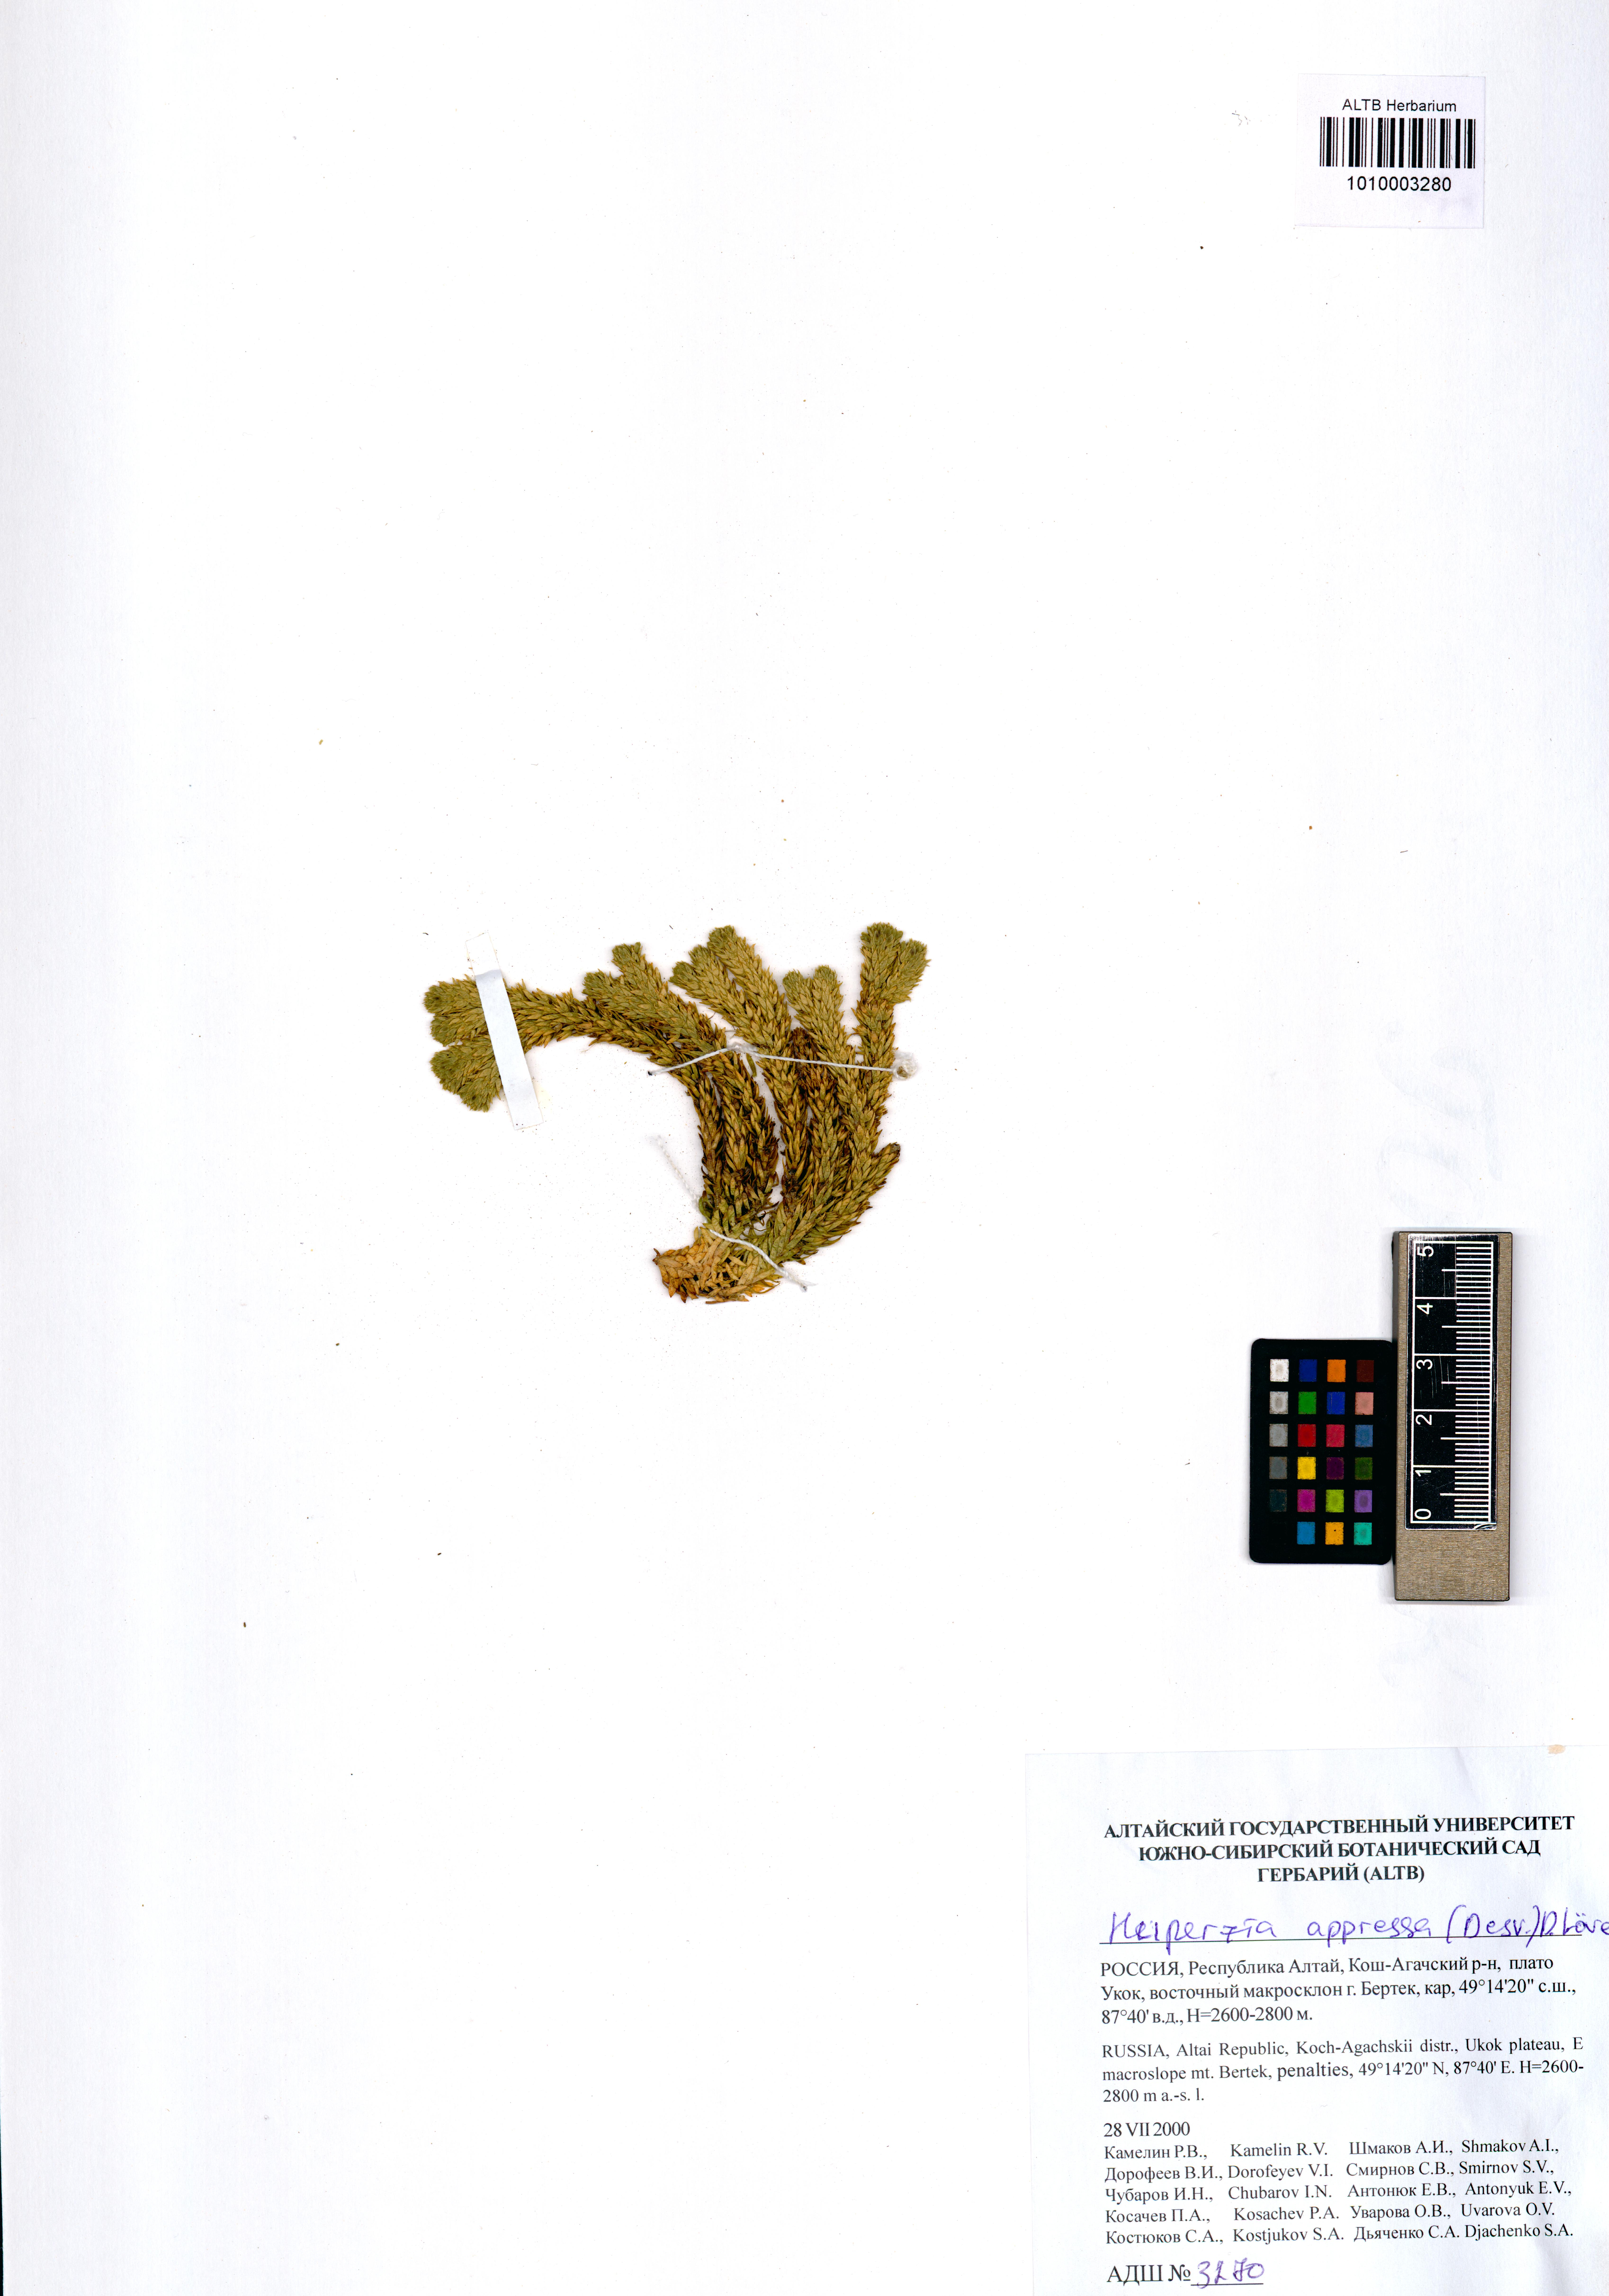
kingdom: Plantae
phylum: Tracheophyta
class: Lycopodiopsida
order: Lycopodiales
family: Lycopodiaceae
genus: Huperzia
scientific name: Huperzia selago
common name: Northern firmoss
